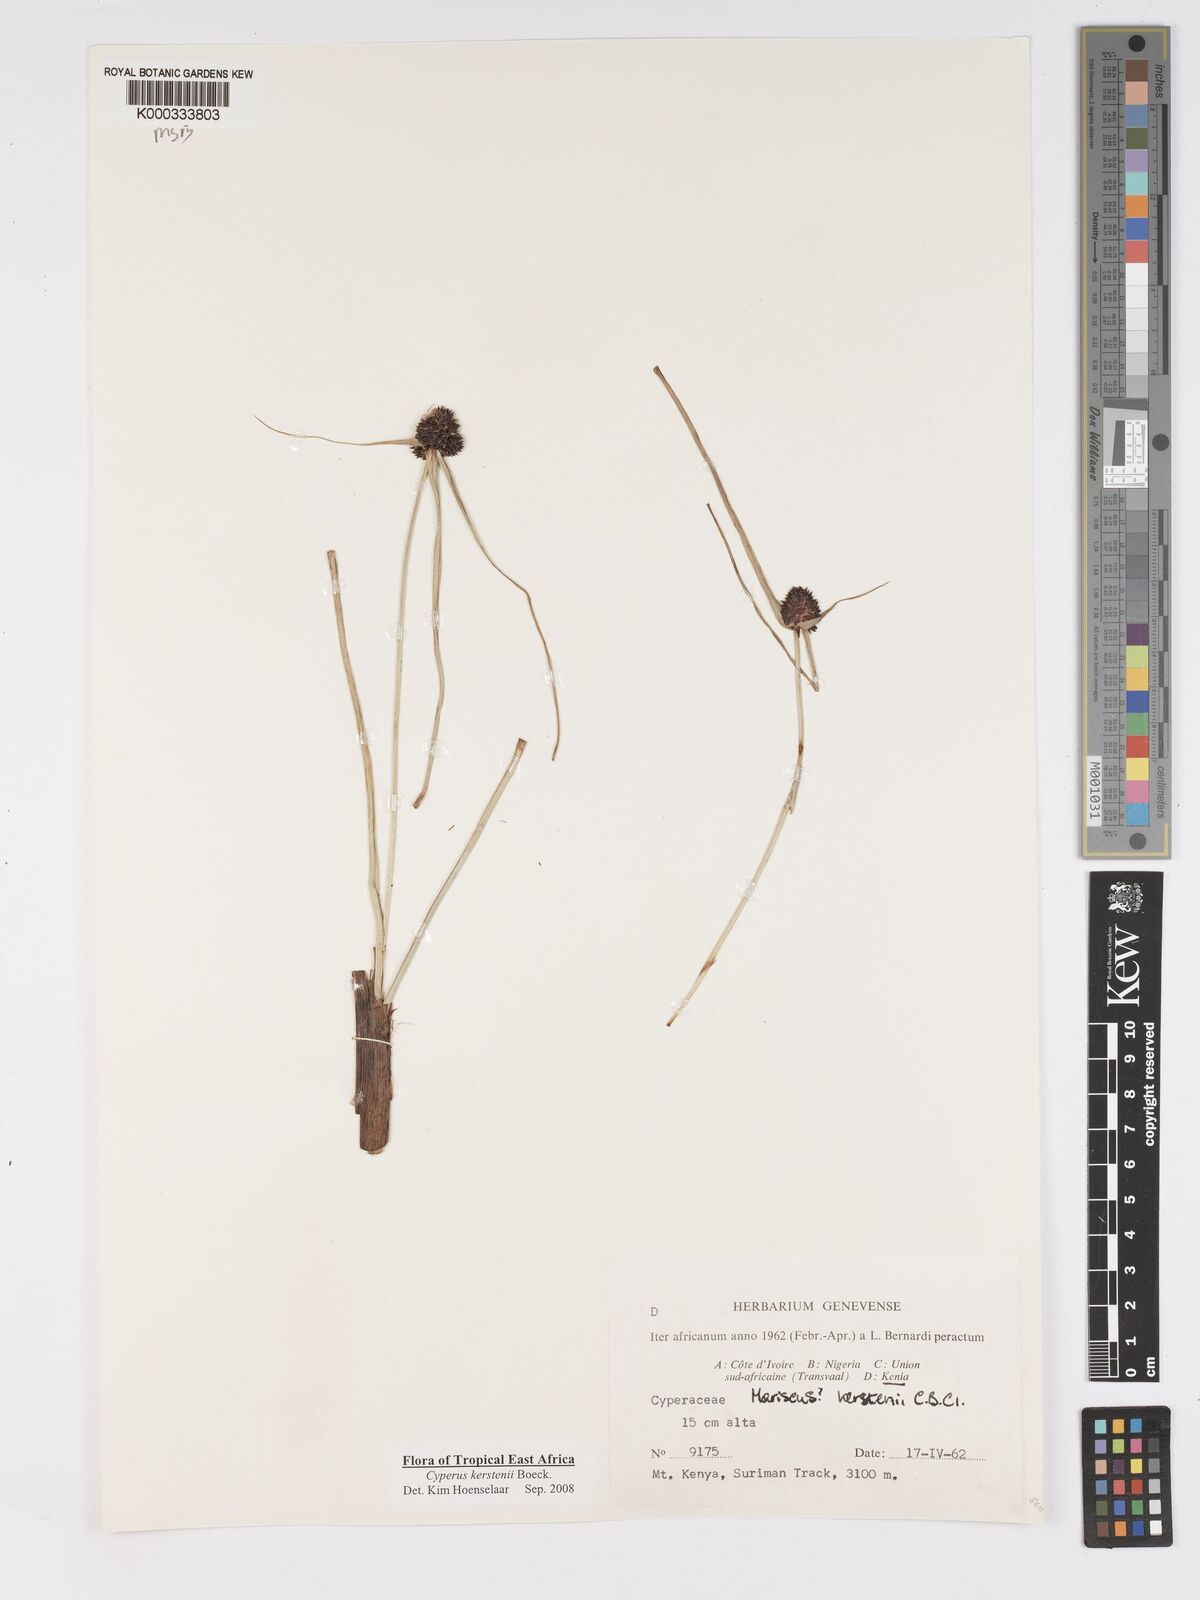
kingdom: Plantae
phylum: Tracheophyta
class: Liliopsida
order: Poales
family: Cyperaceae
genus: Cyperus
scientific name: Cyperus kerstenii
